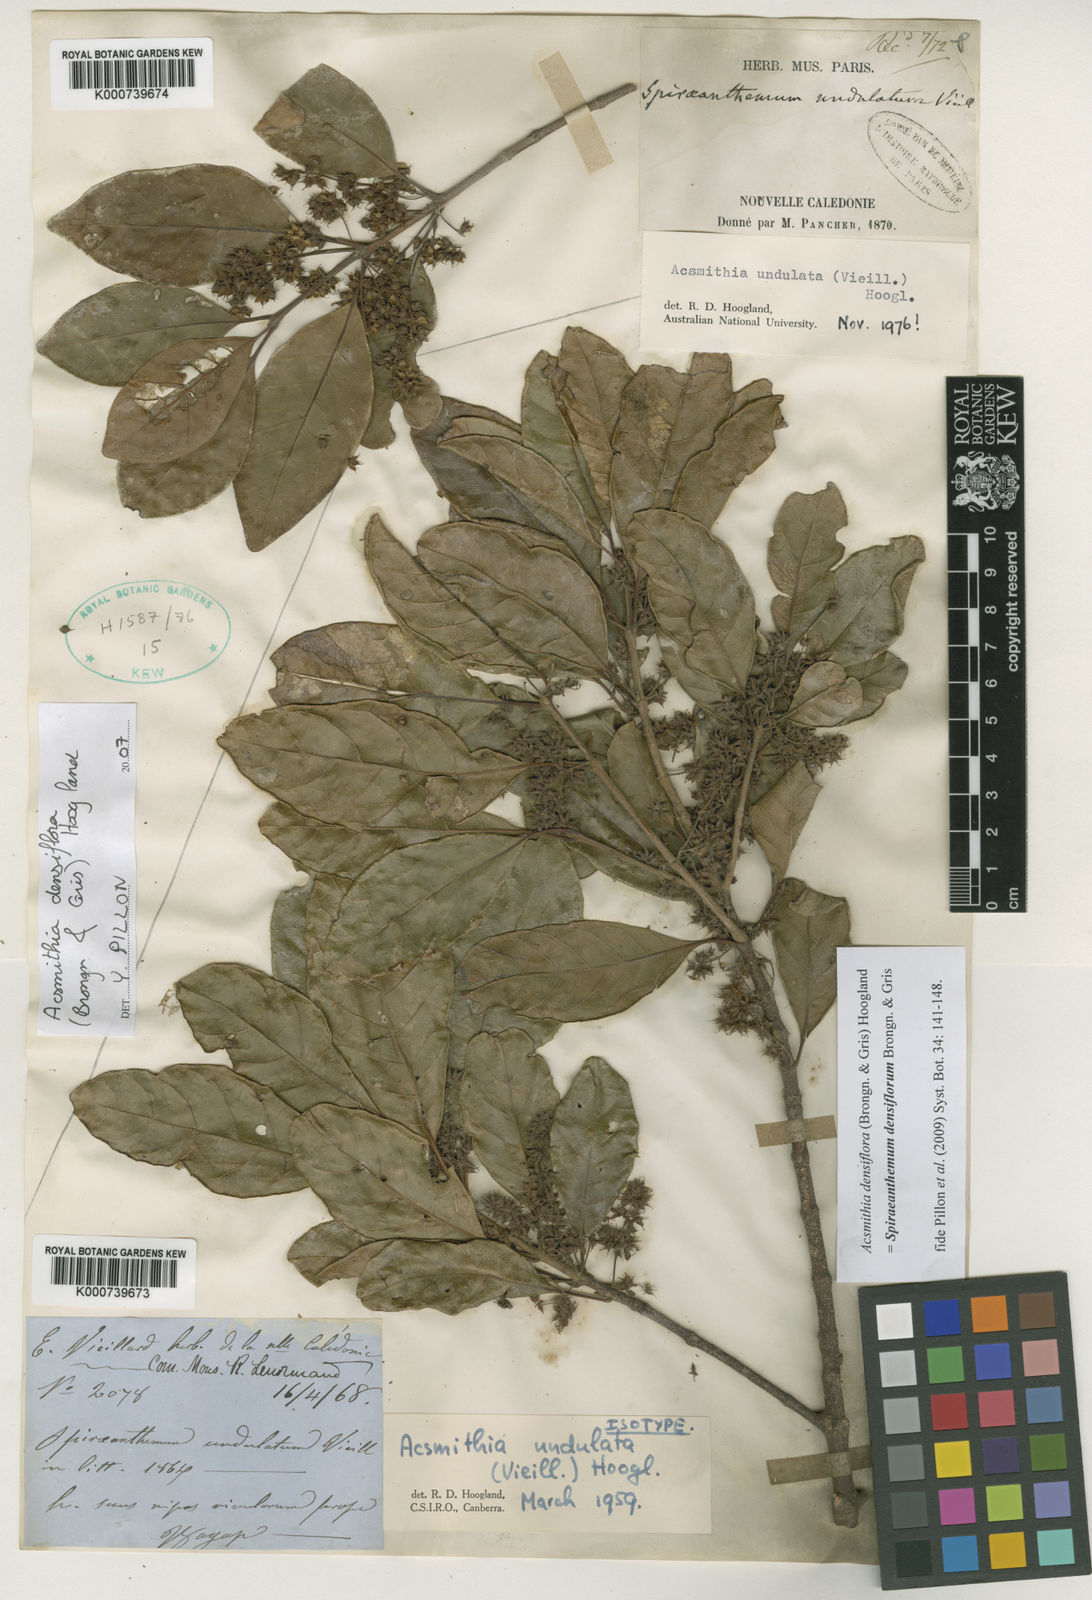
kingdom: Plantae
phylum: Tracheophyta
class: Magnoliopsida
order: Oxalidales
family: Cunoniaceae
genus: Spiraeanthemum
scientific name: Spiraeanthemum densiflorum
